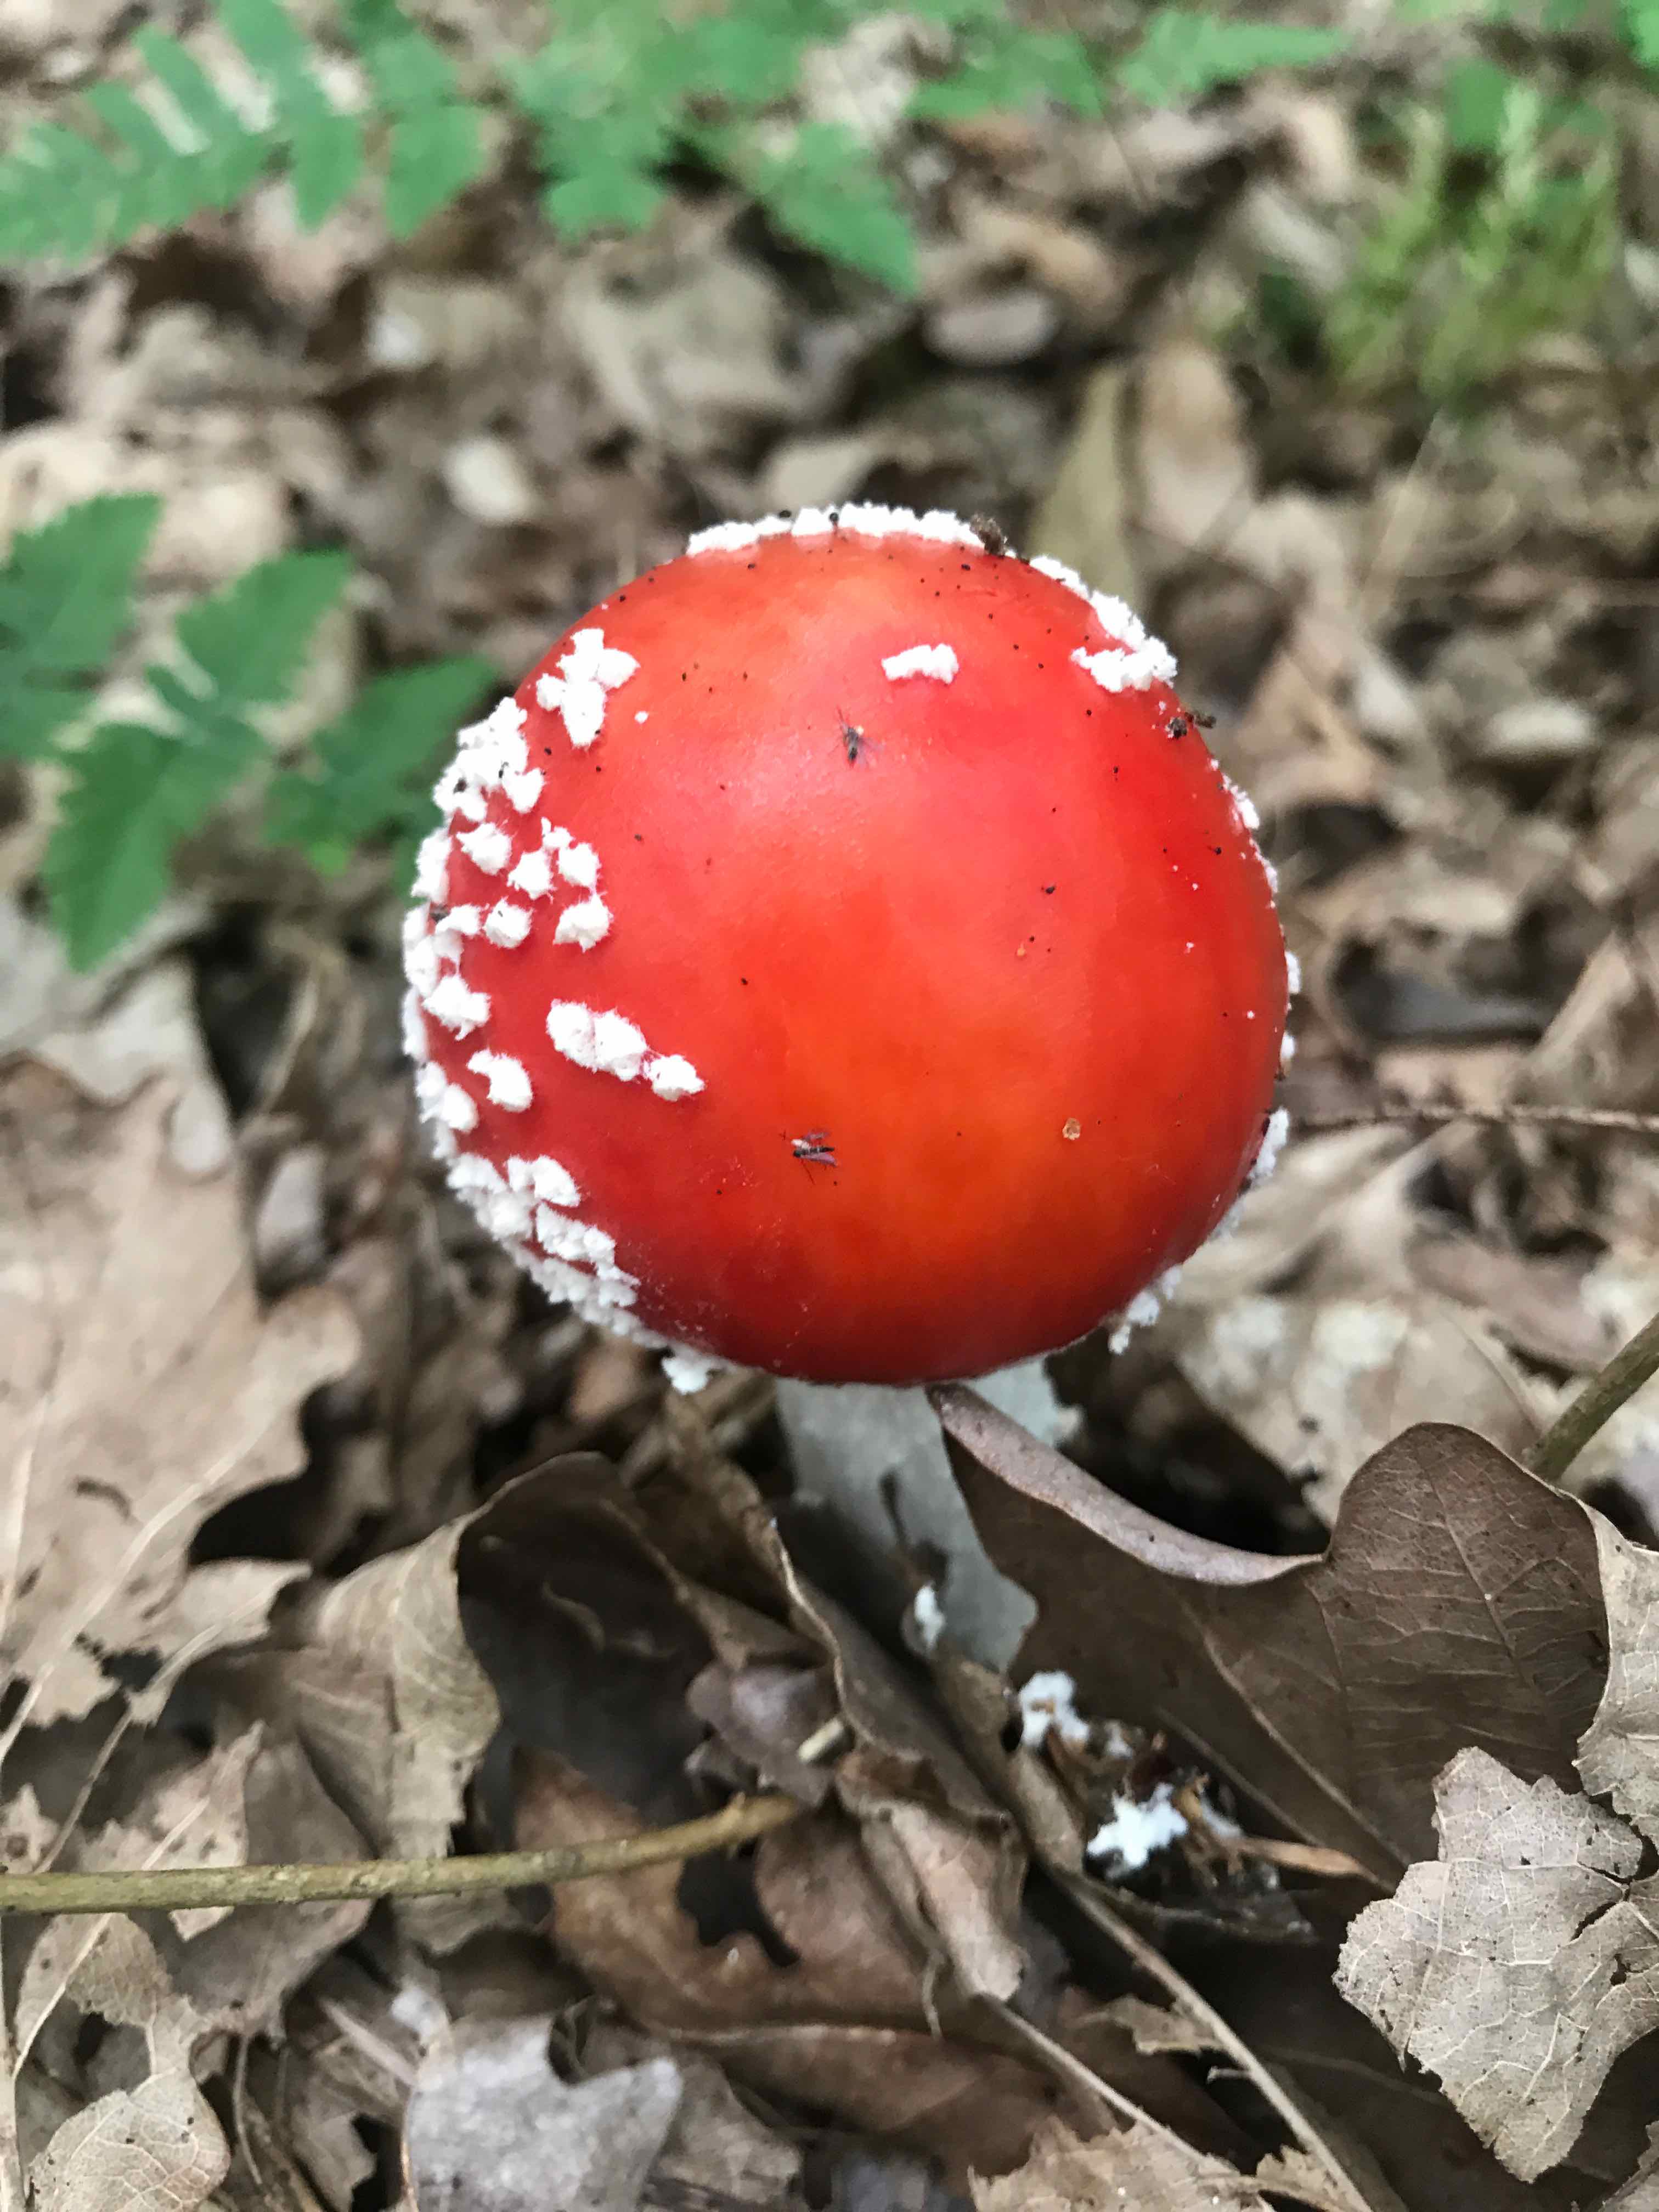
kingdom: Fungi
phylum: Basidiomycota
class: Agaricomycetes
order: Agaricales
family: Amanitaceae
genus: Amanita
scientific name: Amanita muscaria
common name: rød fluesvamp
